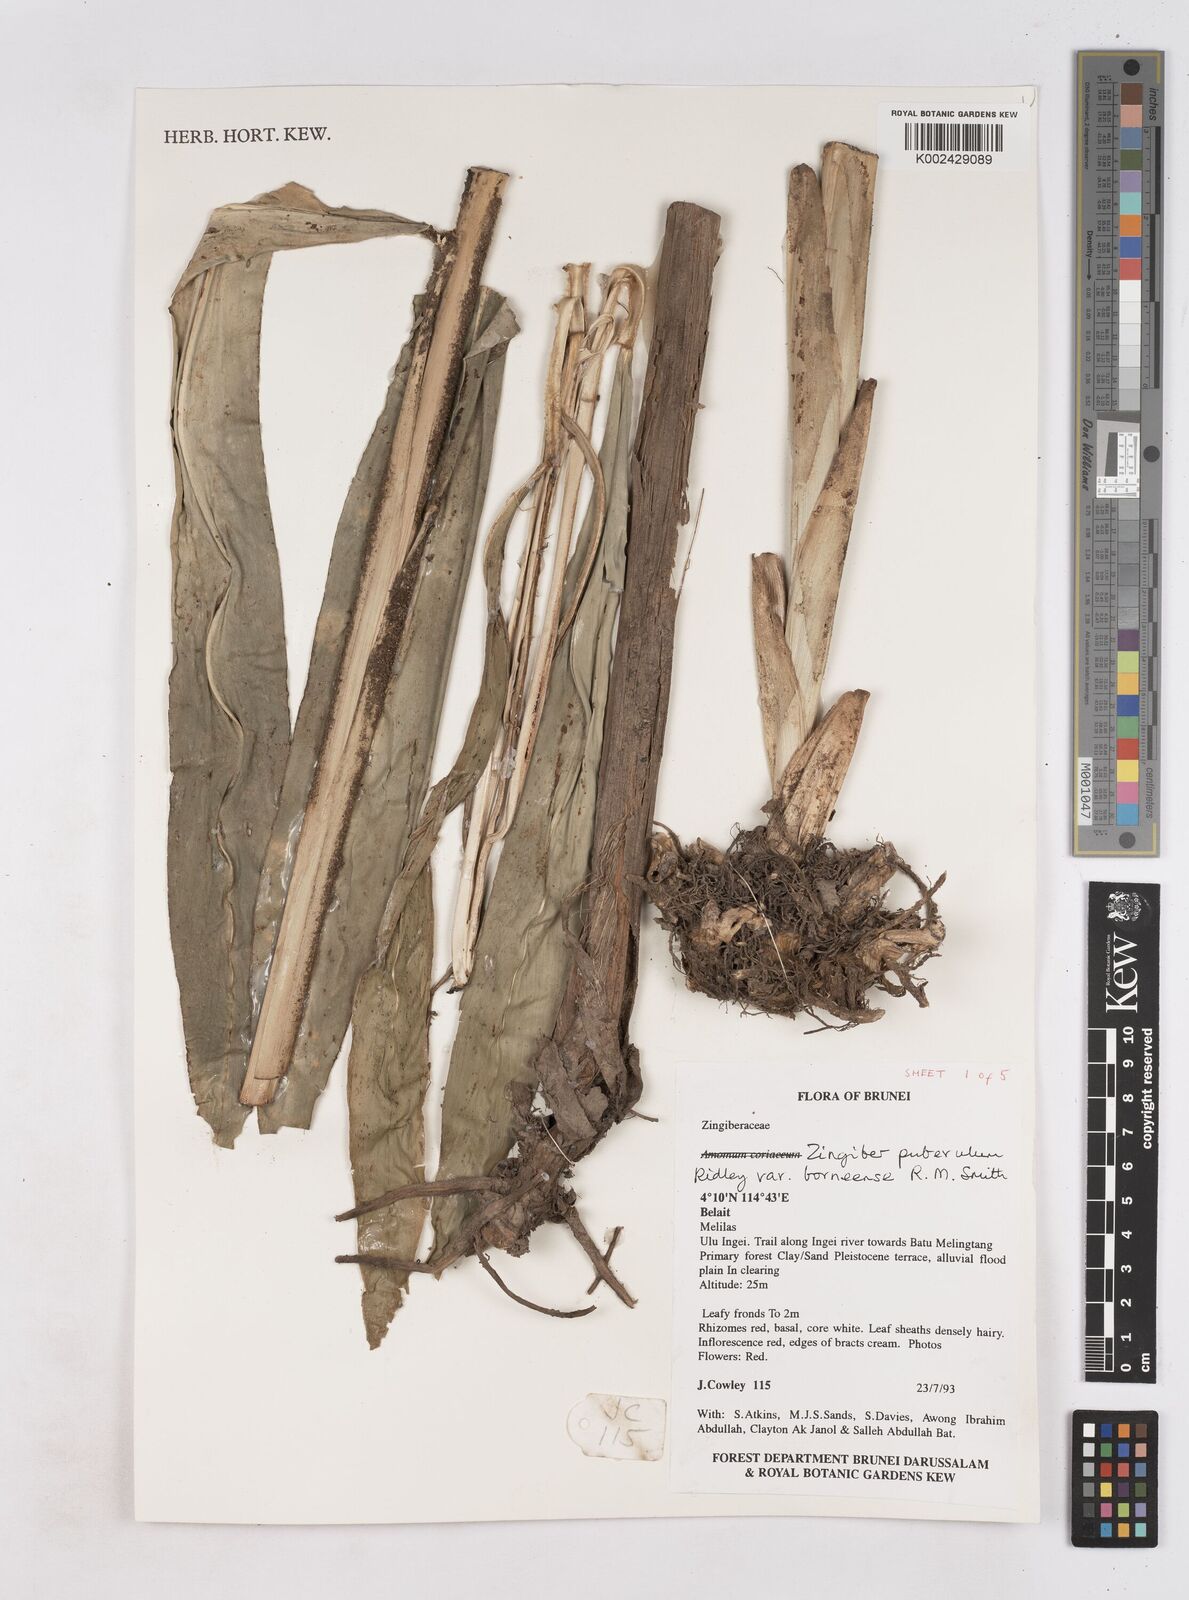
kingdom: Plantae
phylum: Tracheophyta
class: Liliopsida
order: Zingiberales
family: Zingiberaceae
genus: Zingiber
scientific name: Zingiber puberulum
